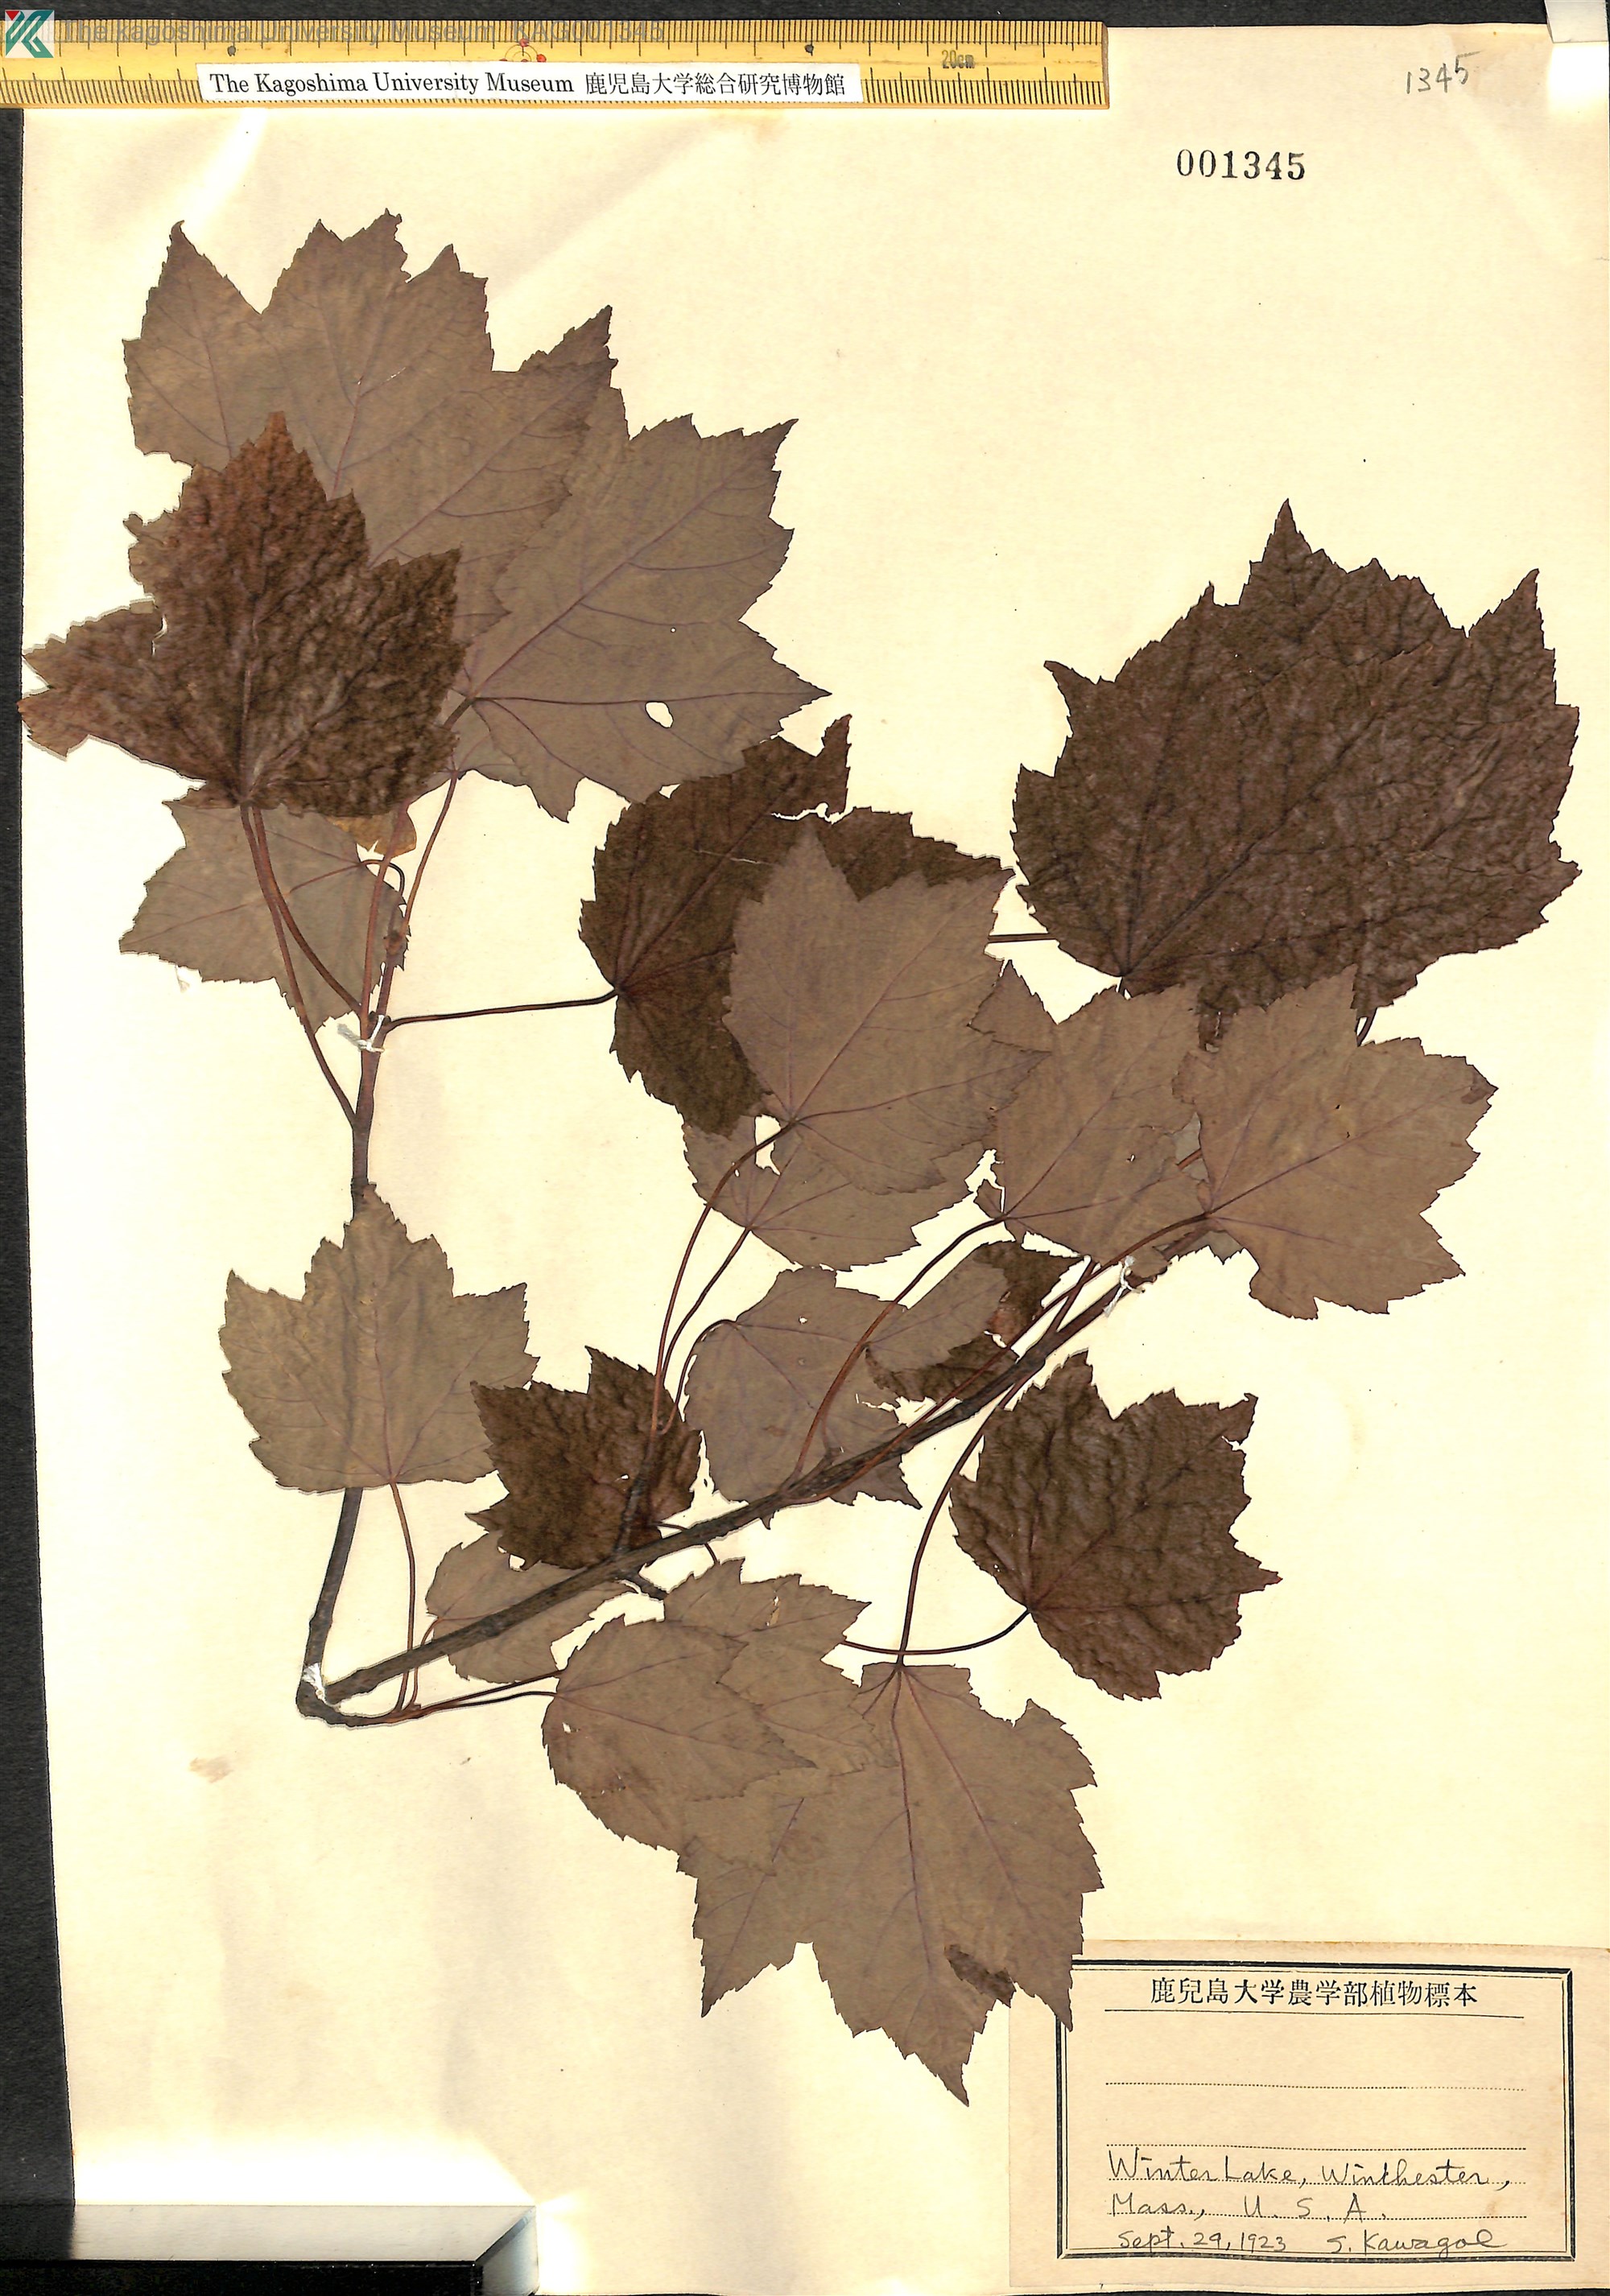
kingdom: Plantae
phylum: Tracheophyta
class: Magnoliopsida
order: Sapindales
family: Sapindaceae
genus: Acer
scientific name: Acer
